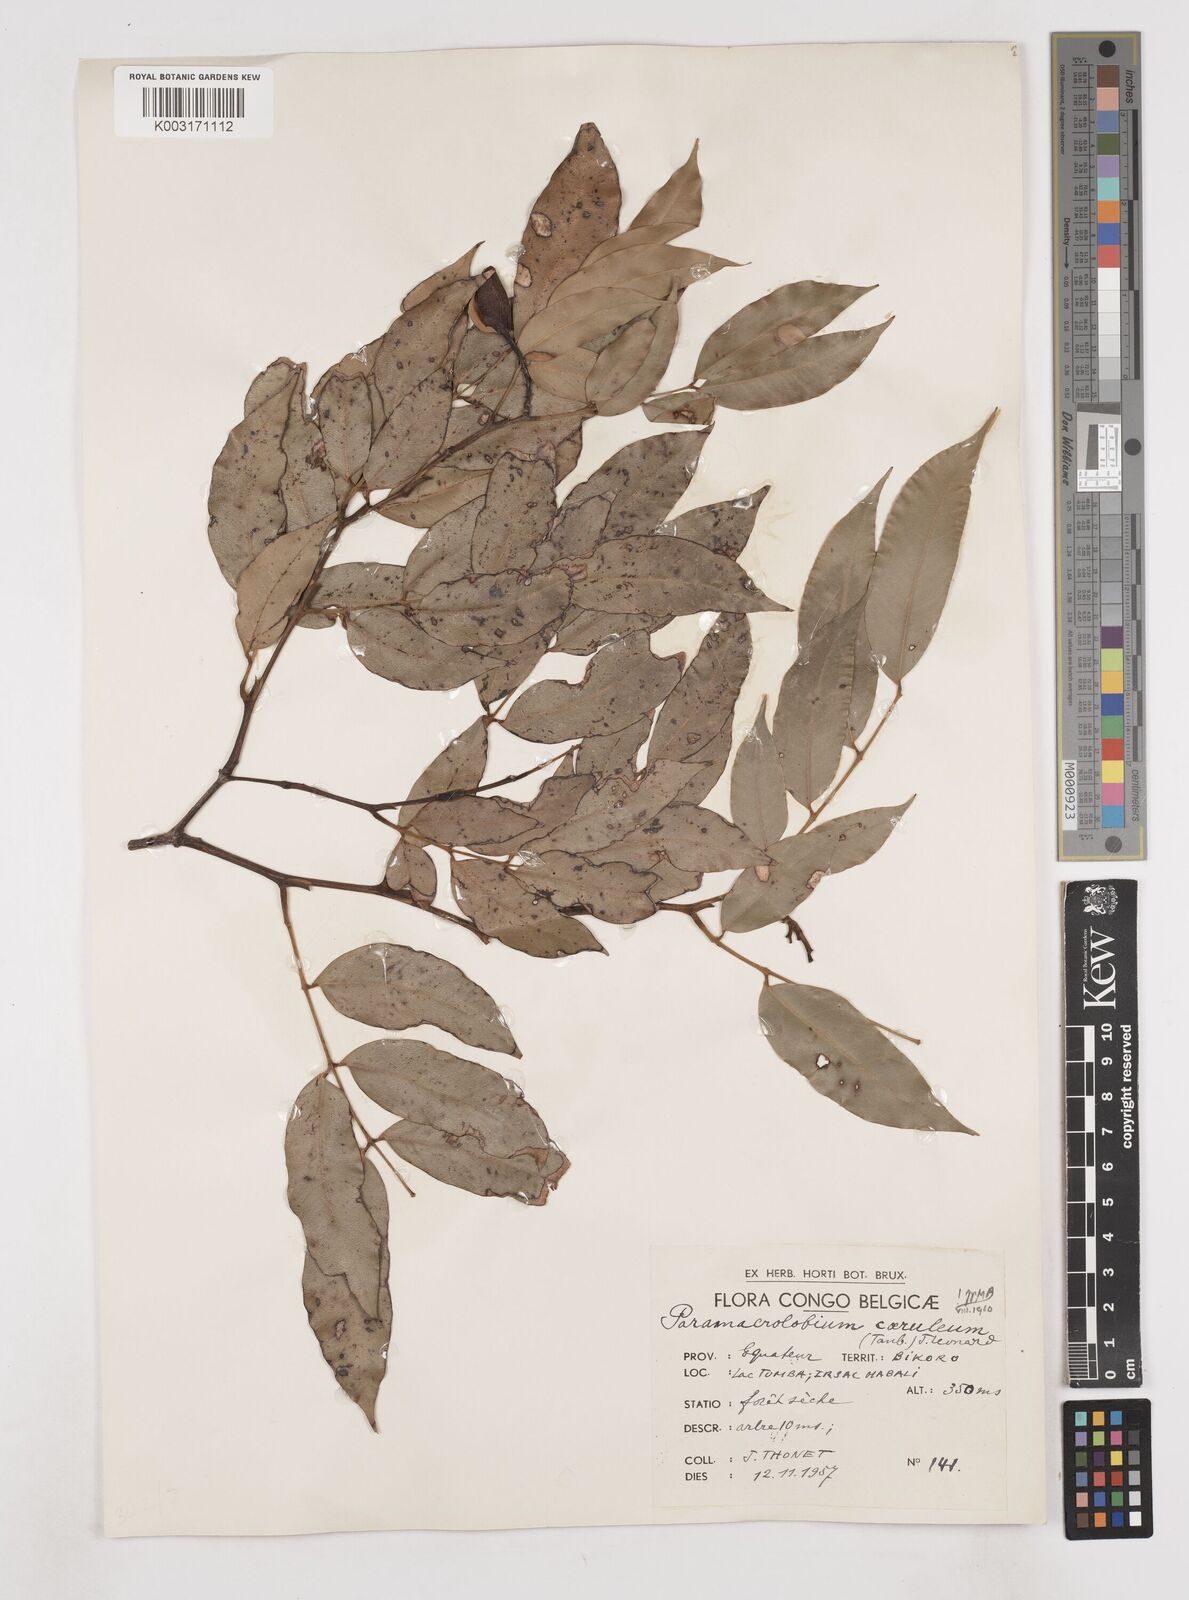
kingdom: Plantae
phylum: Tracheophyta
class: Magnoliopsida
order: Fabales
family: Fabaceae
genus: Paramacrolobium
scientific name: Paramacrolobium coeruleum
